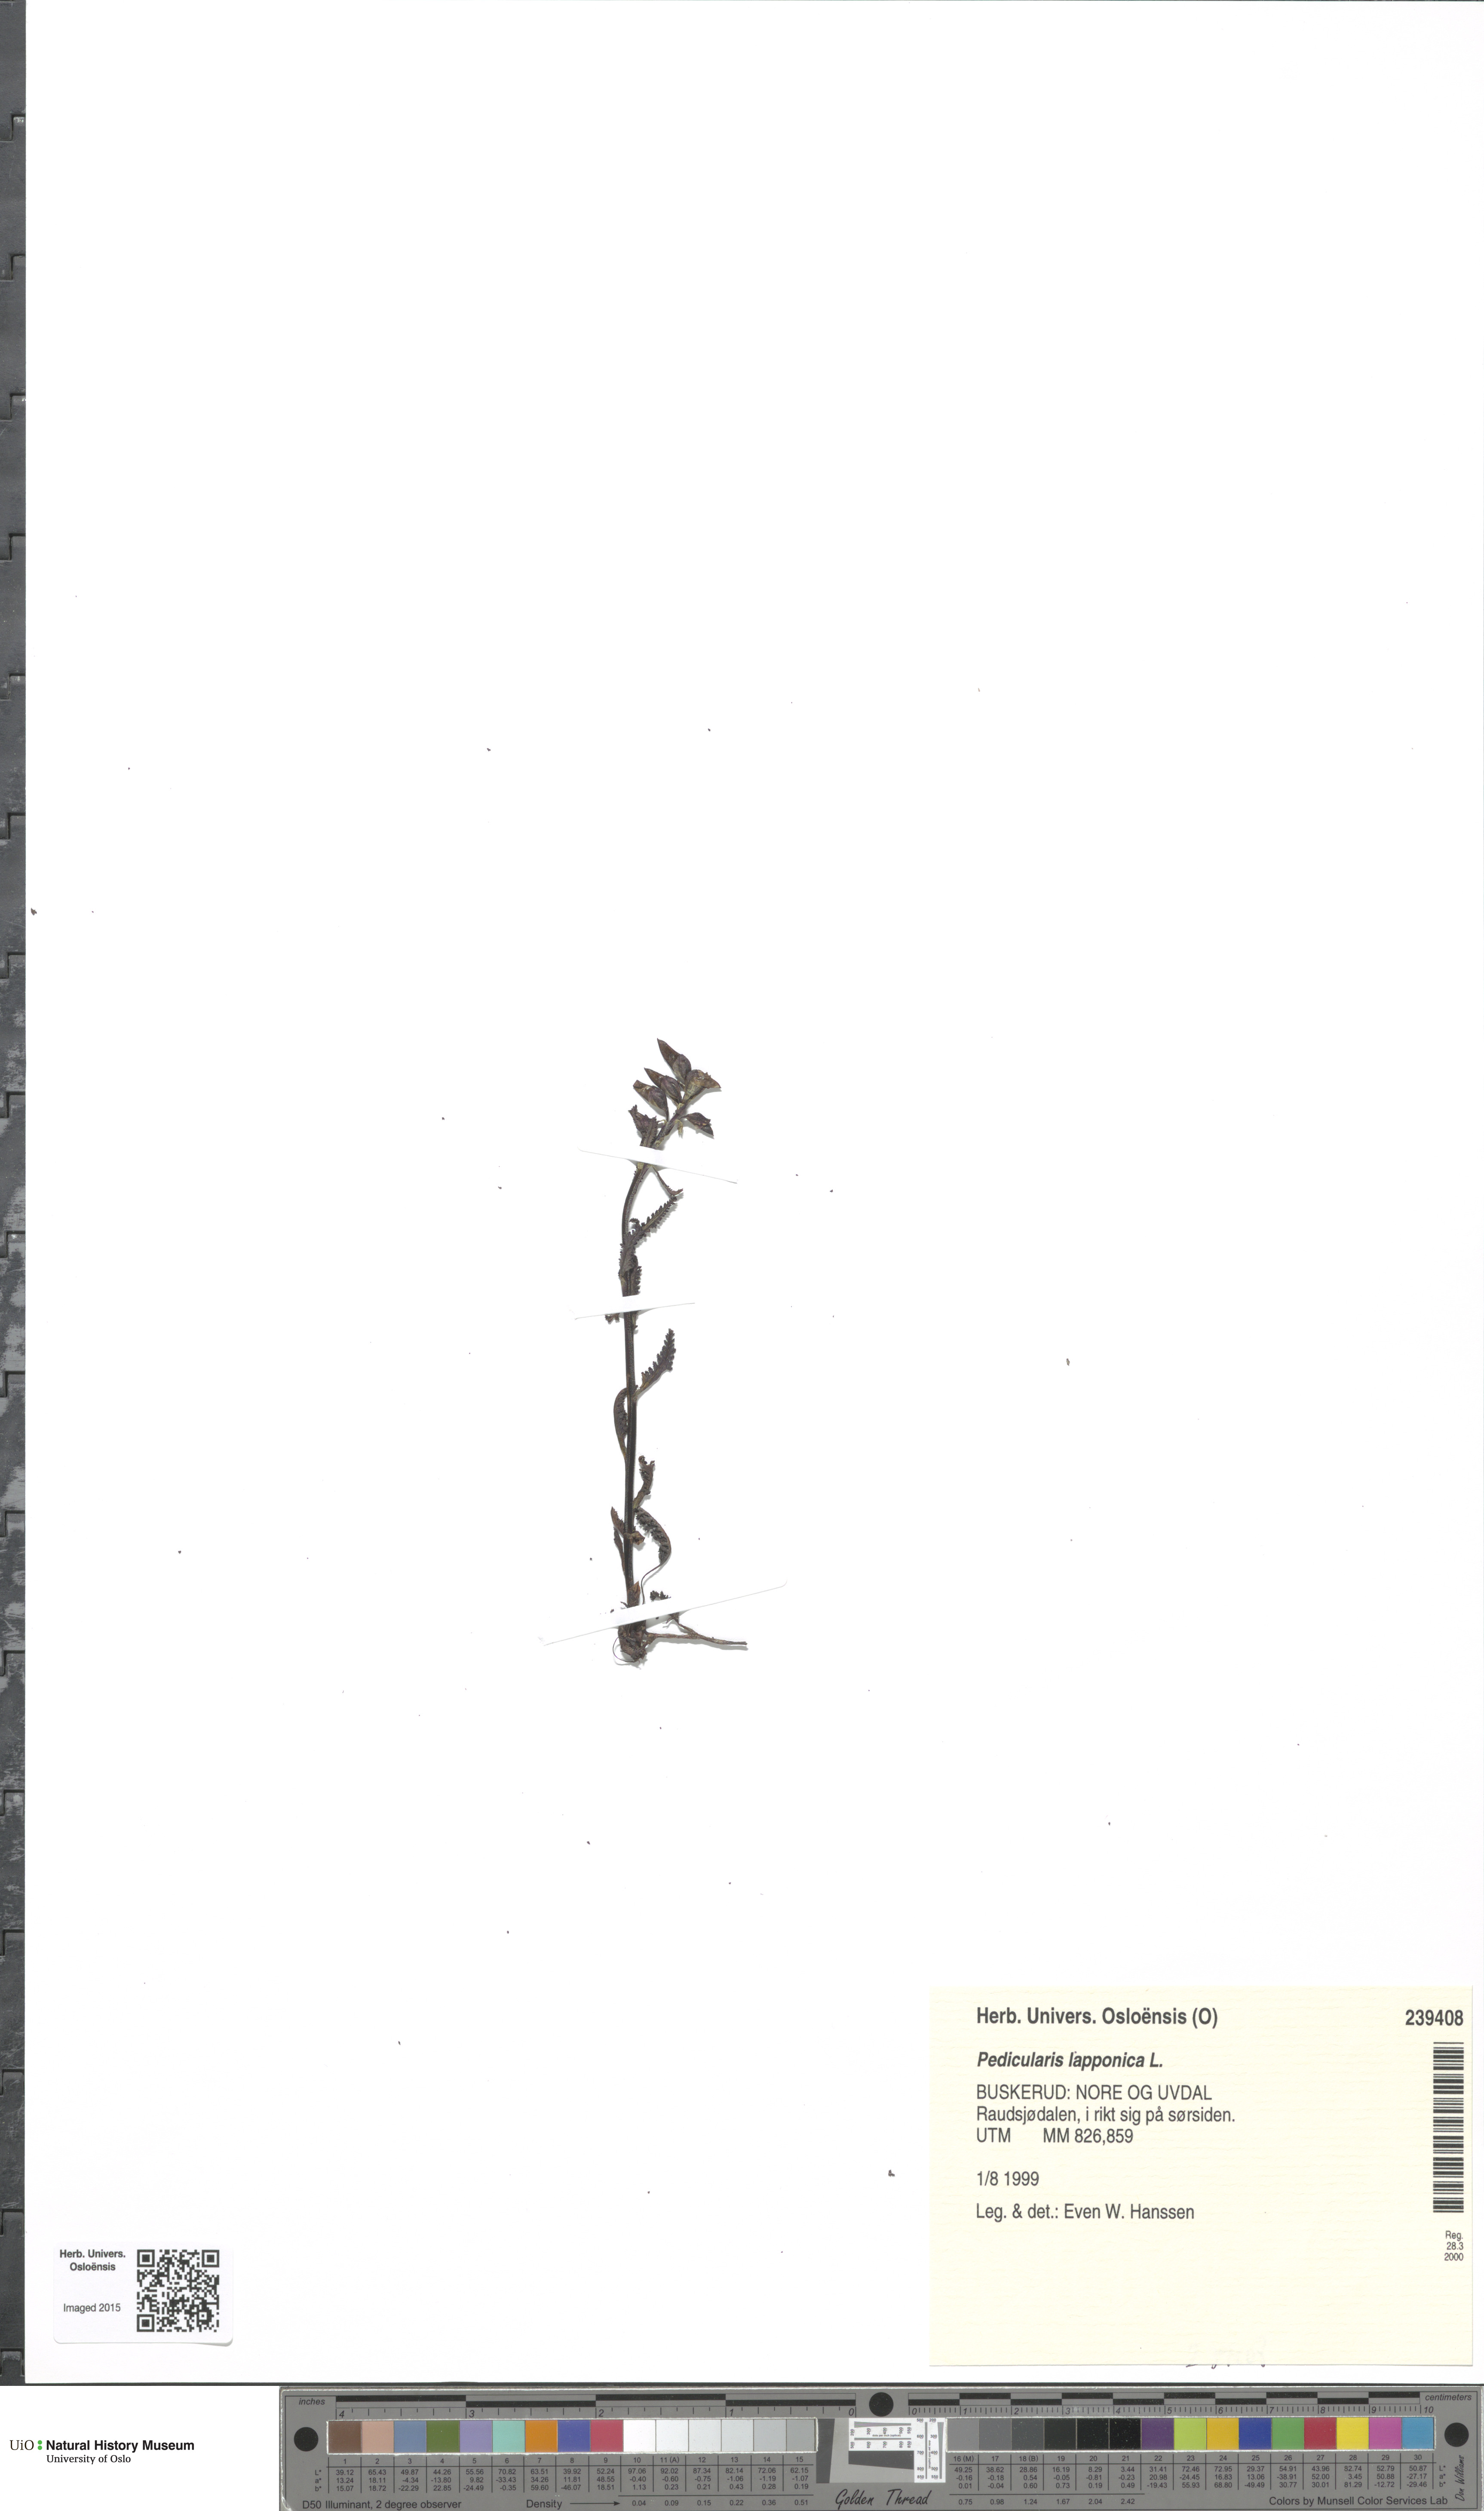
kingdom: Plantae
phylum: Tracheophyta
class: Magnoliopsida
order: Lamiales
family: Orobanchaceae
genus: Pedicularis
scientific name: Pedicularis lapponica
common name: Lapland lousewort
